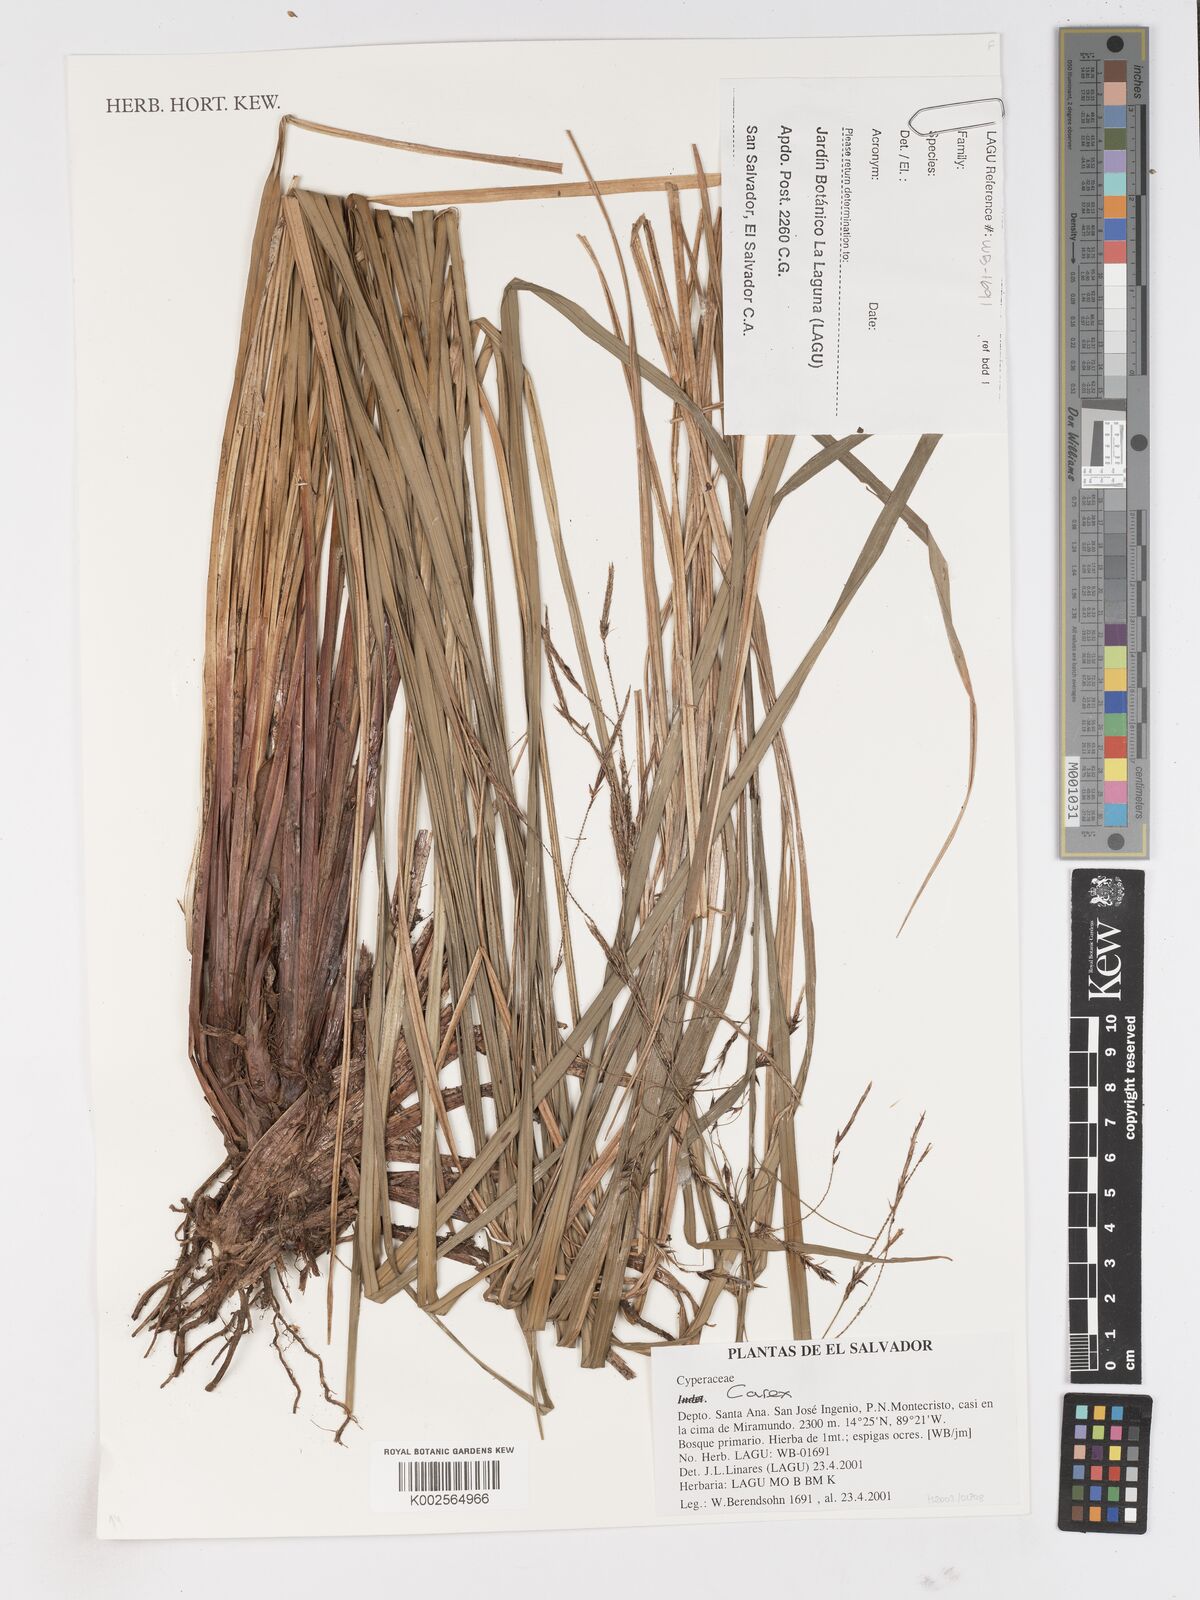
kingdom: Plantae
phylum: Tracheophyta
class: Liliopsida
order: Poales
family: Cyperaceae
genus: Carex
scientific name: Carex
